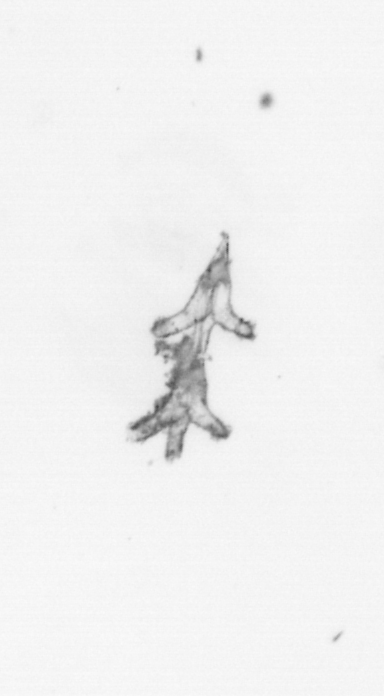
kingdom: Animalia
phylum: Cnidaria
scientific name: Cnidaria
